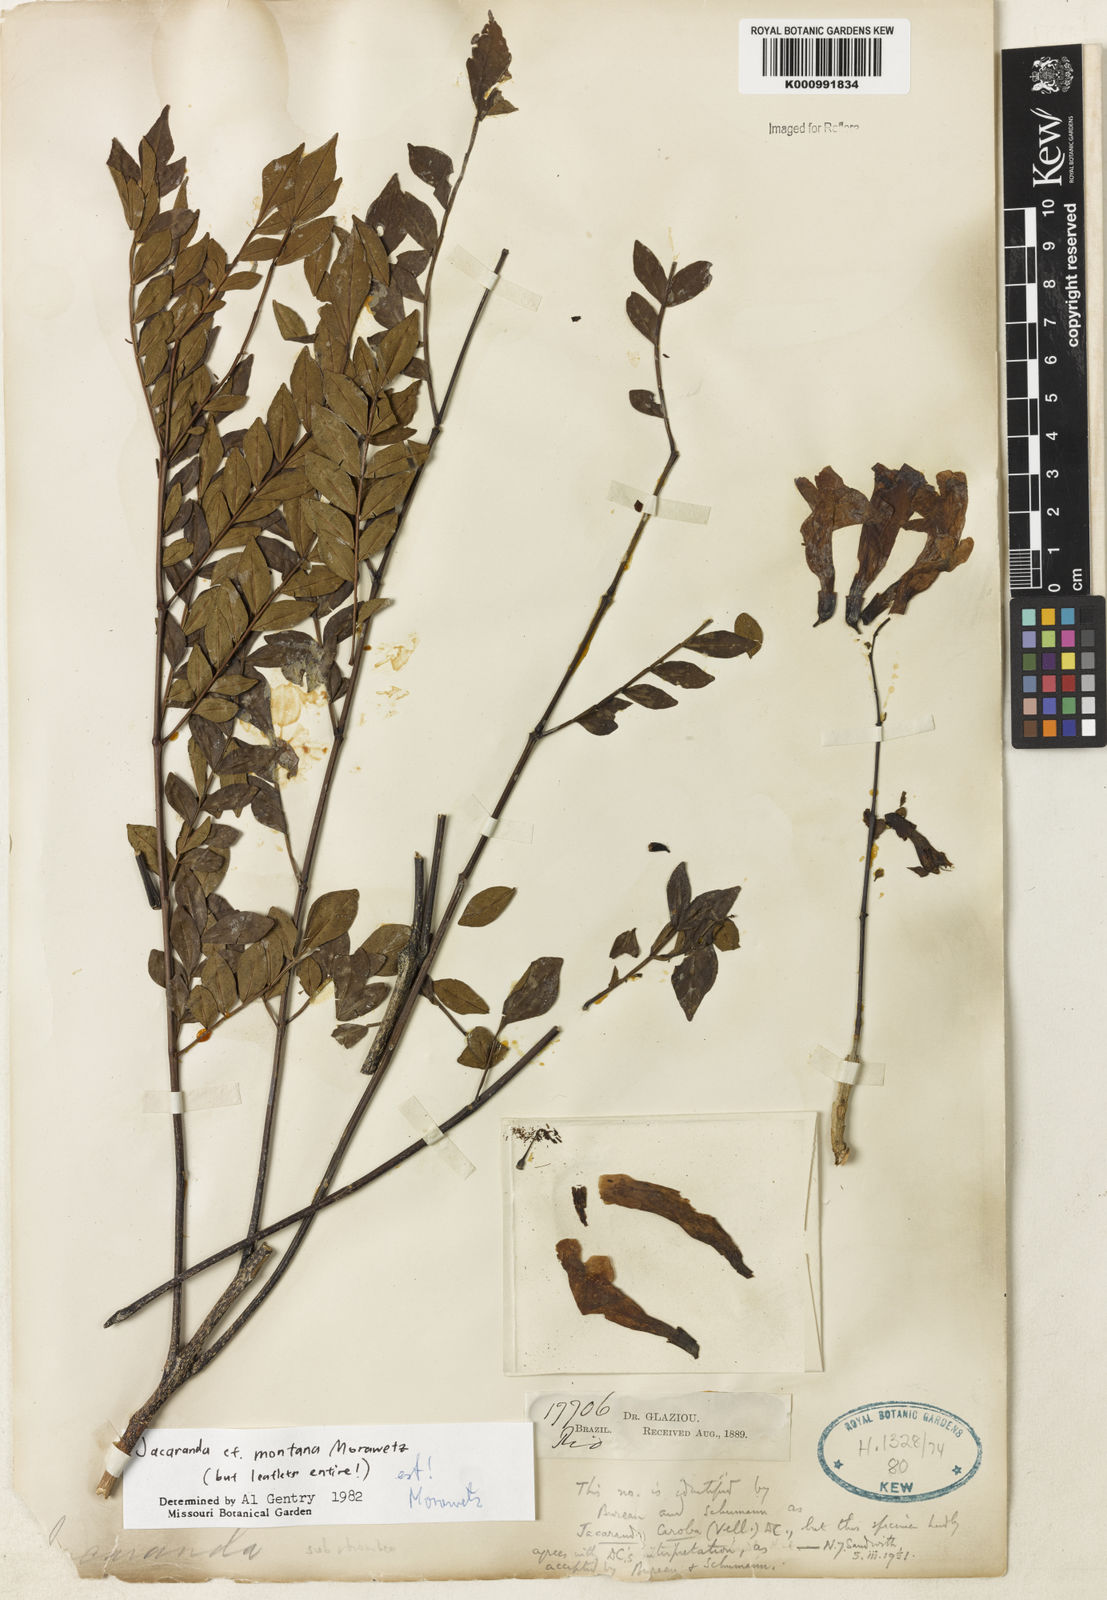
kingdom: Plantae
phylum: Tracheophyta
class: Magnoliopsida
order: Lamiales
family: Bignoniaceae
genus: Jacaranda
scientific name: Jacaranda montana
